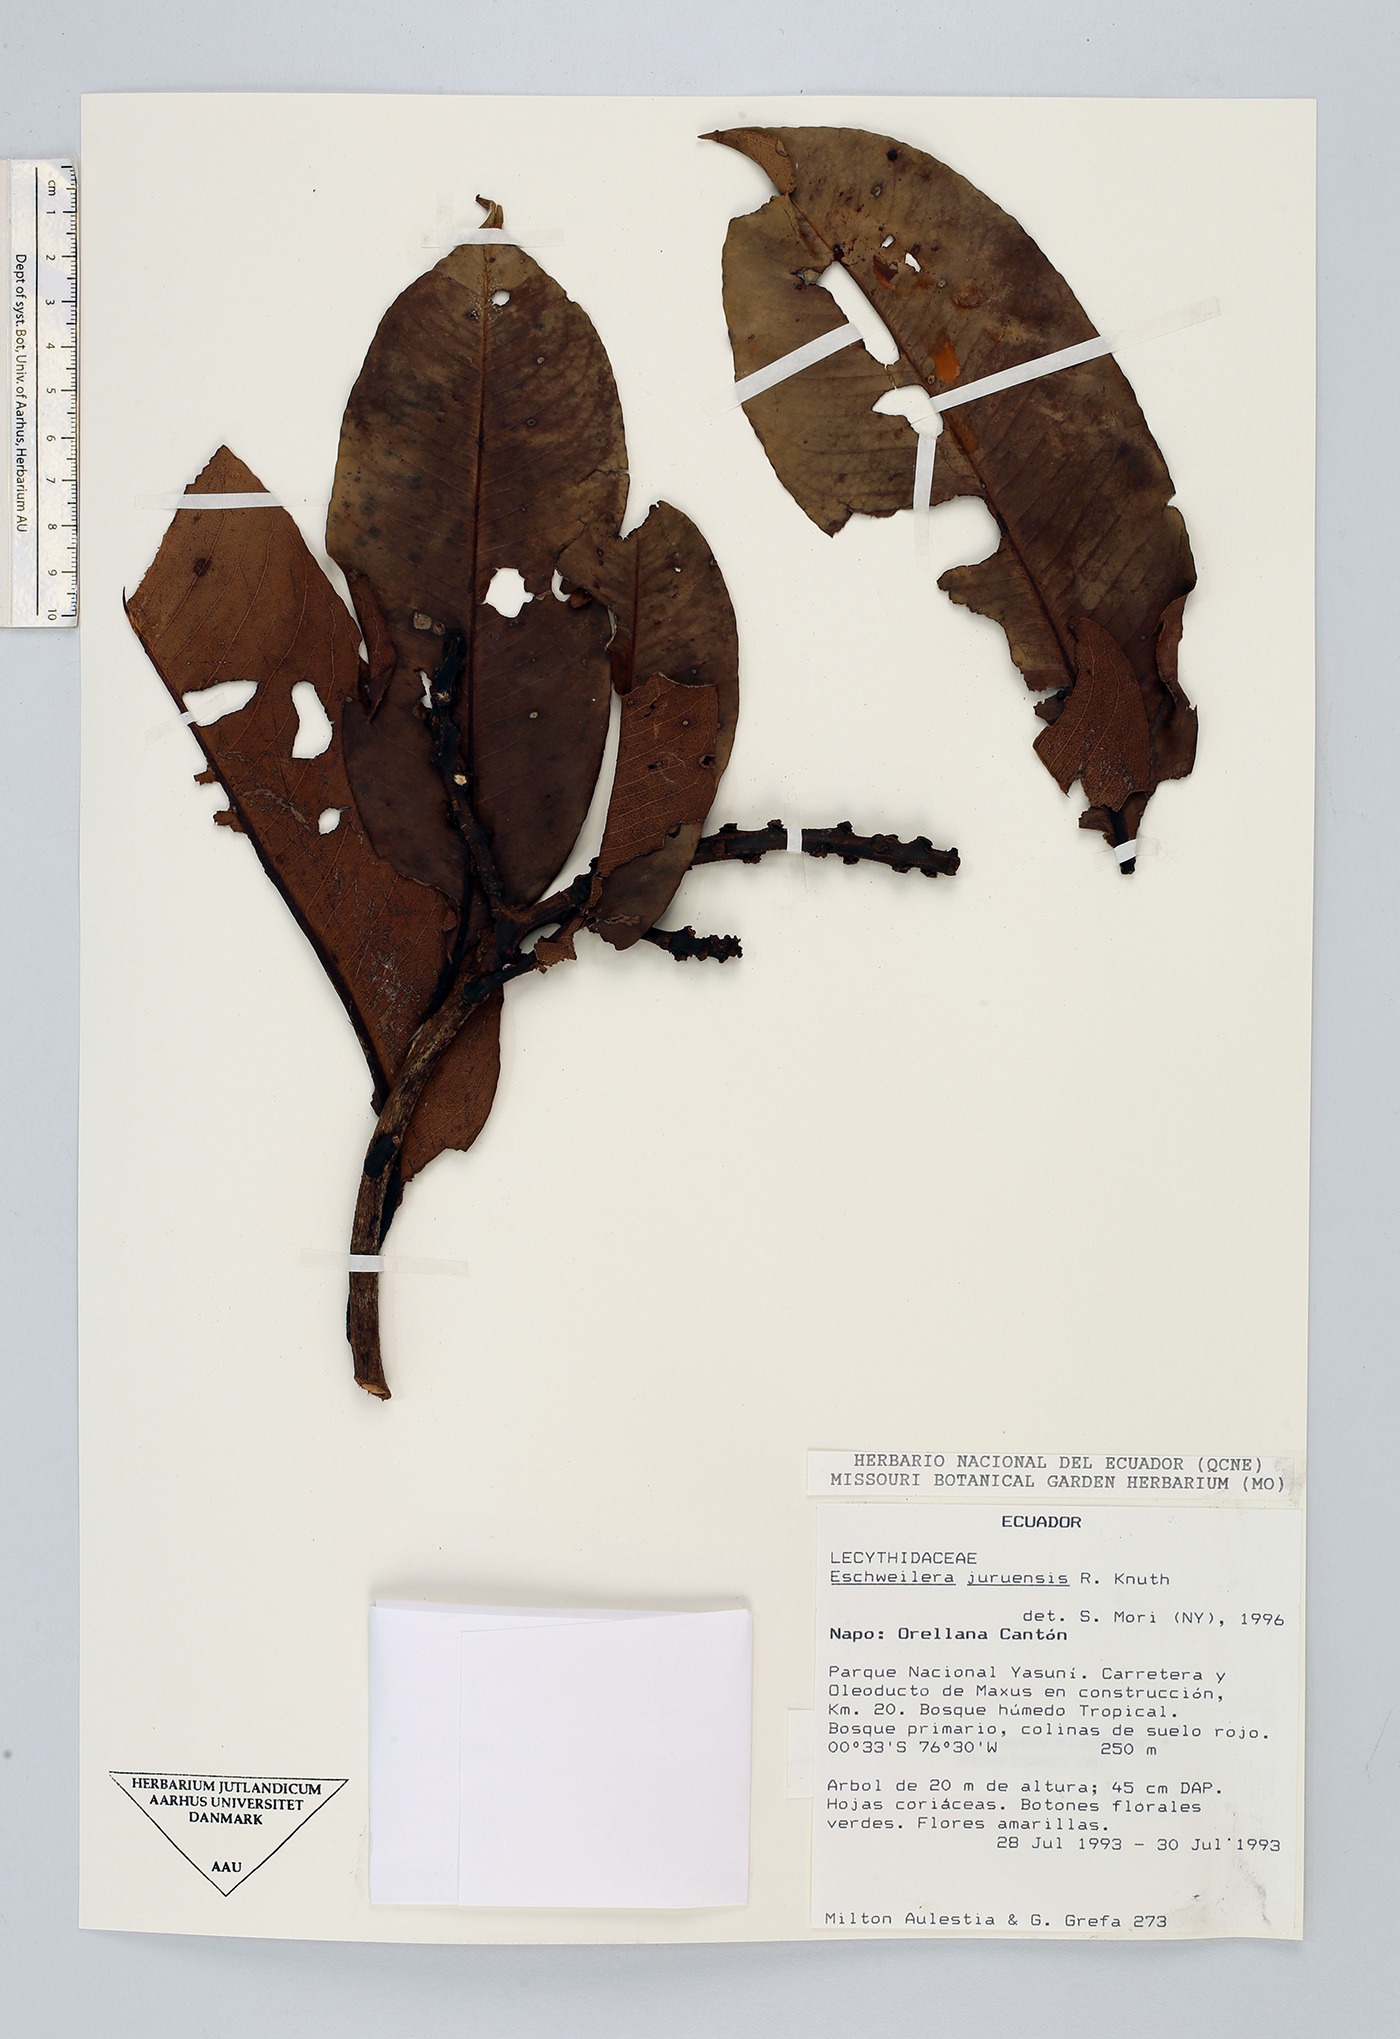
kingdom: Plantae
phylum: Tracheophyta
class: Magnoliopsida
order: Ericales
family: Lecythidaceae
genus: Eschweilera
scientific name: Eschweilera juruensis
